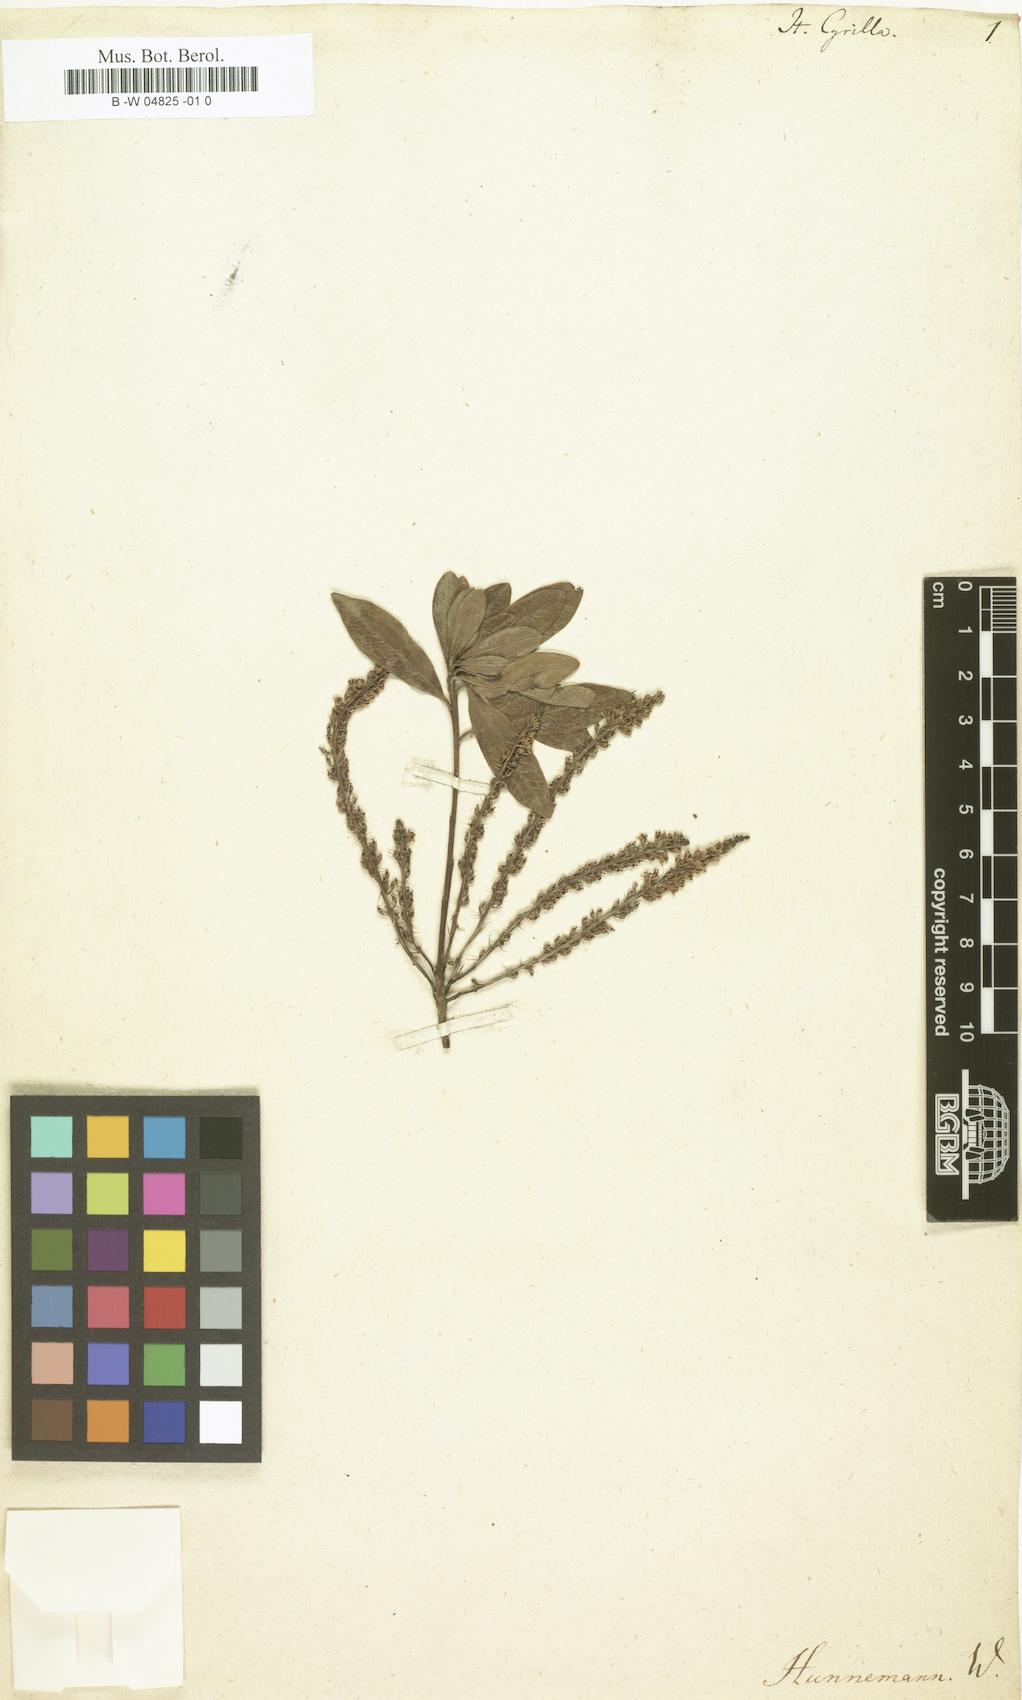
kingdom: Plantae
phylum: Tracheophyta
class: Magnoliopsida
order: Saxifragales
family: Iteaceae
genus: Itea
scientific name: Itea
